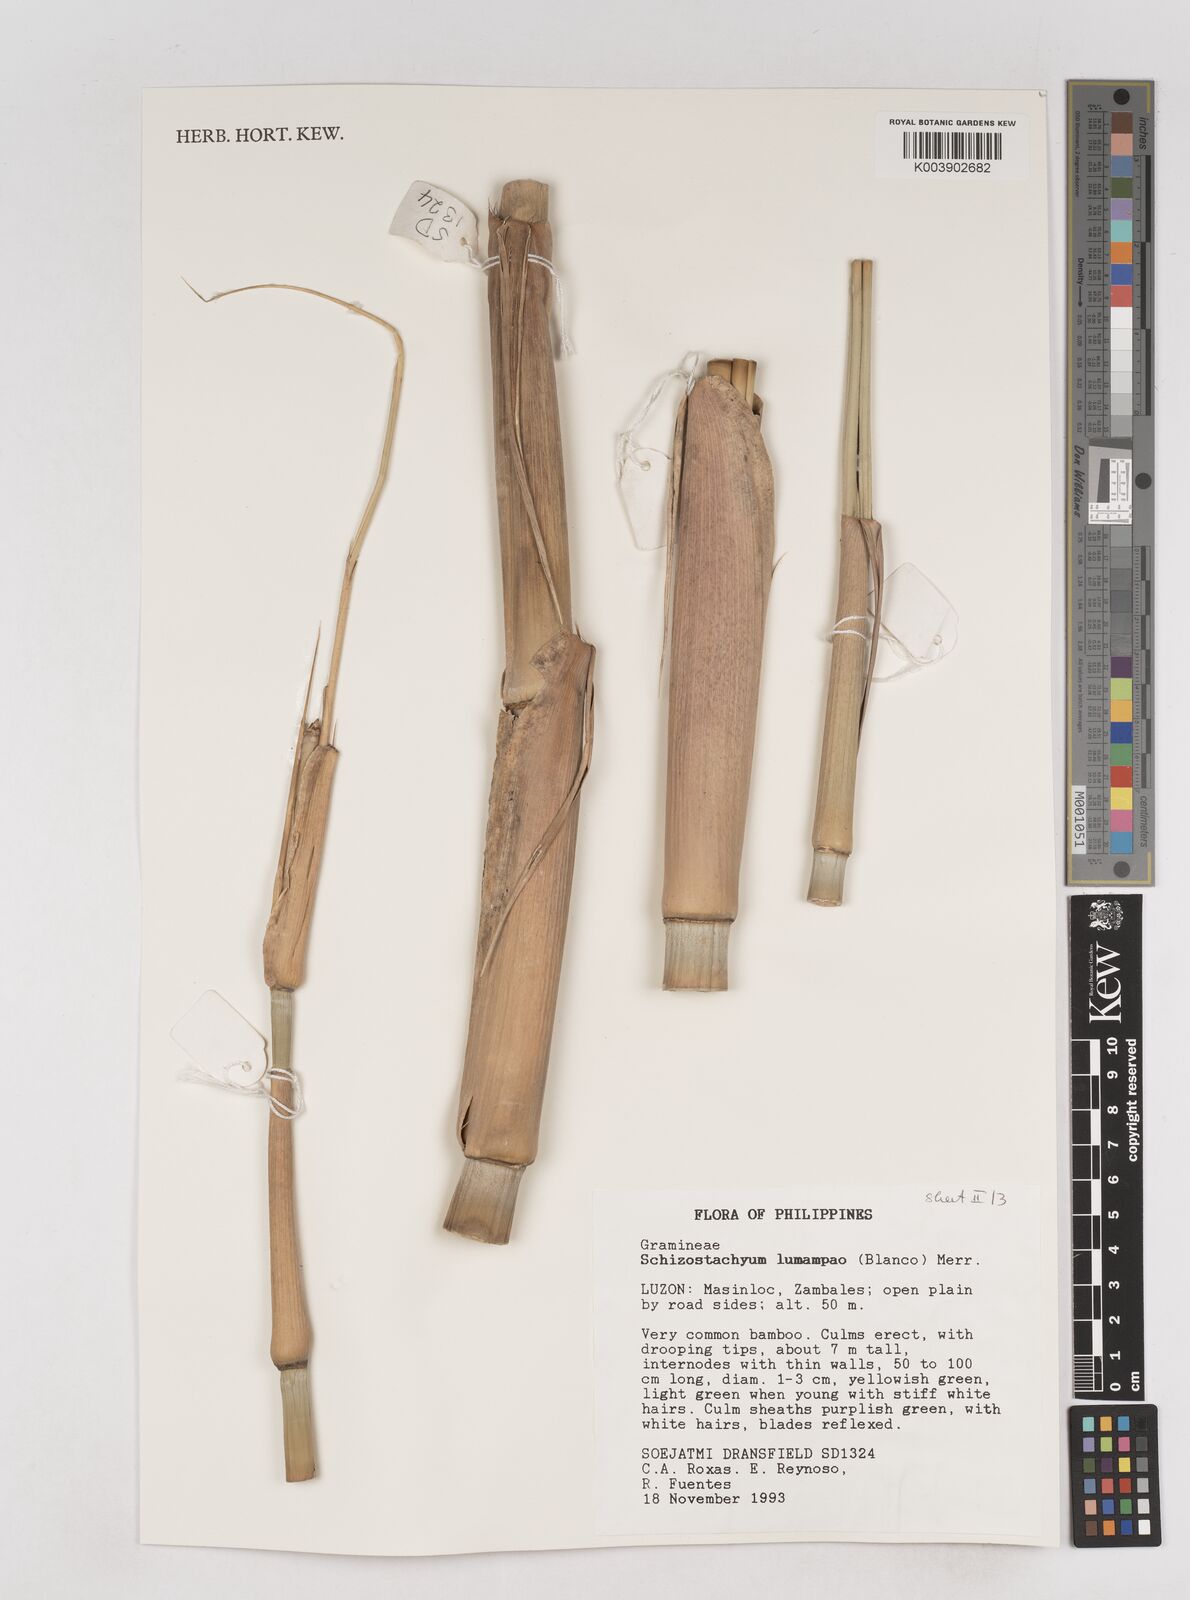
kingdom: Plantae
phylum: Tracheophyta
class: Liliopsida
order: Poales
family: Poaceae
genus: Schizostachyum
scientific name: Schizostachyum lumampao
